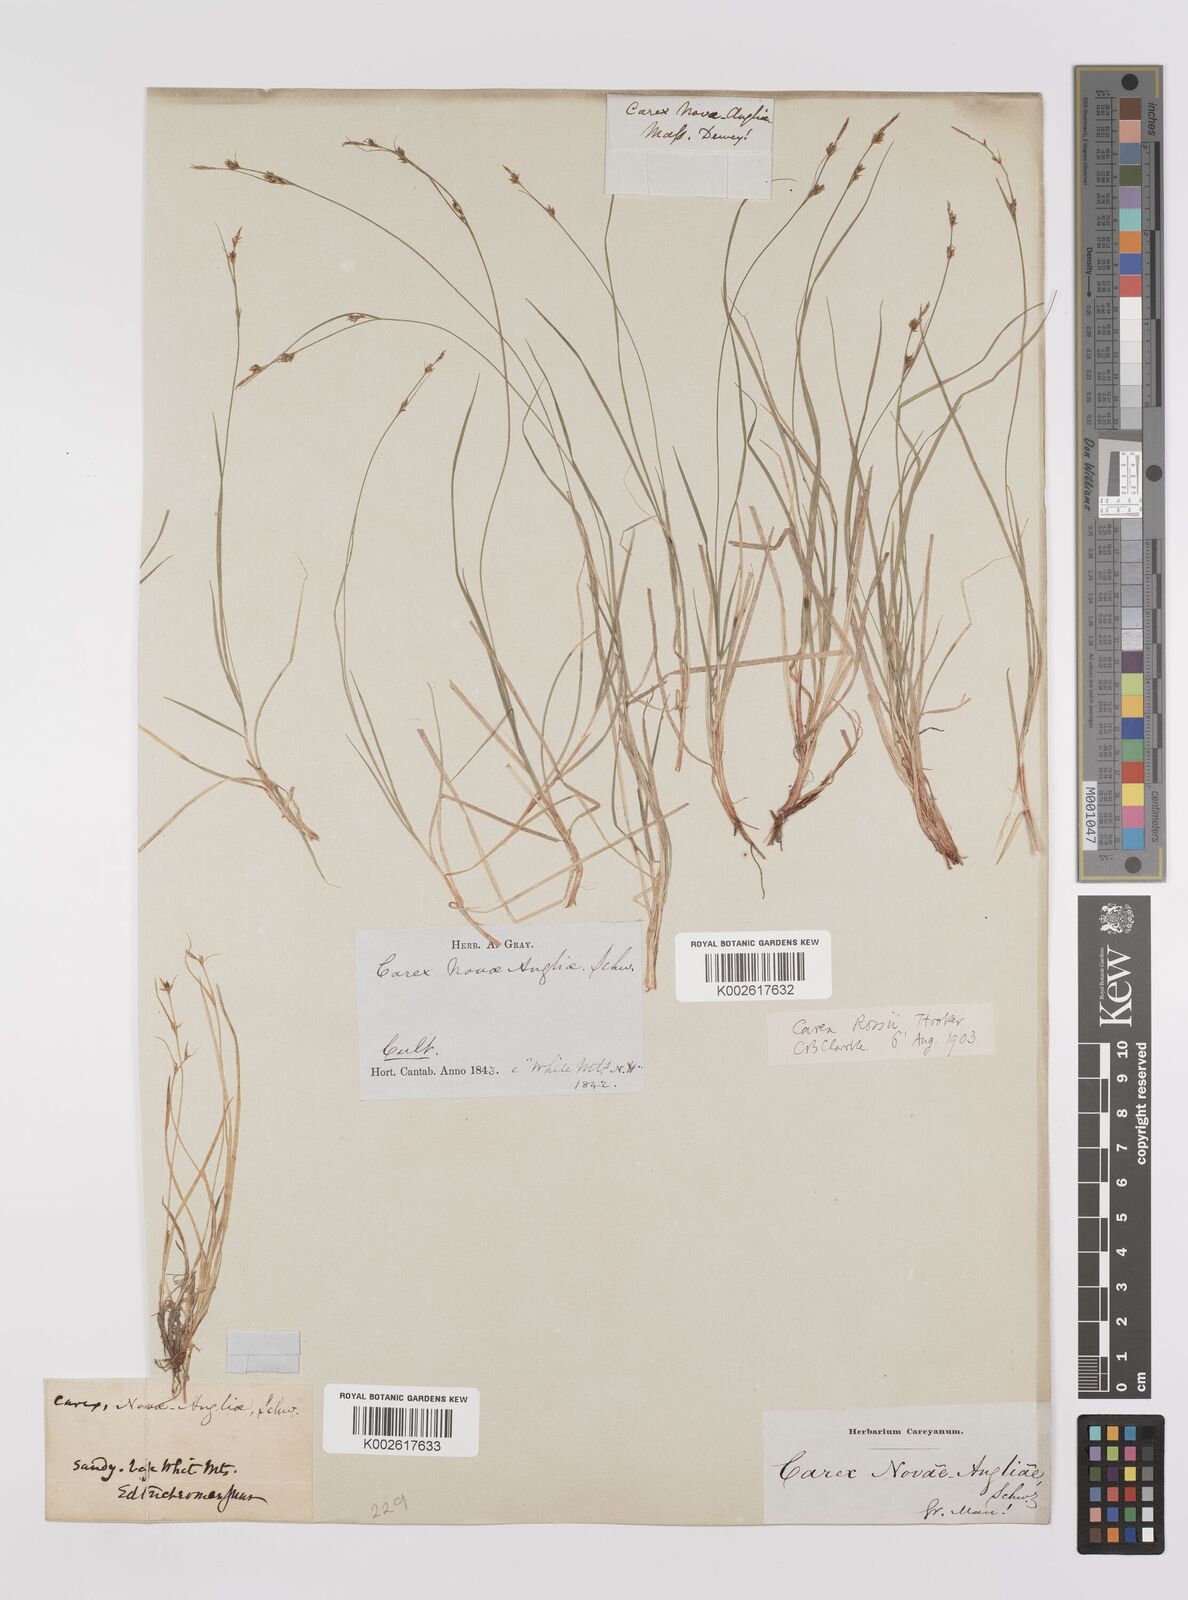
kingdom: Plantae
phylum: Tracheophyta
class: Liliopsida
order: Poales
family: Cyperaceae
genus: Carex
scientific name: Carex rossii
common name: Ross' sedge
